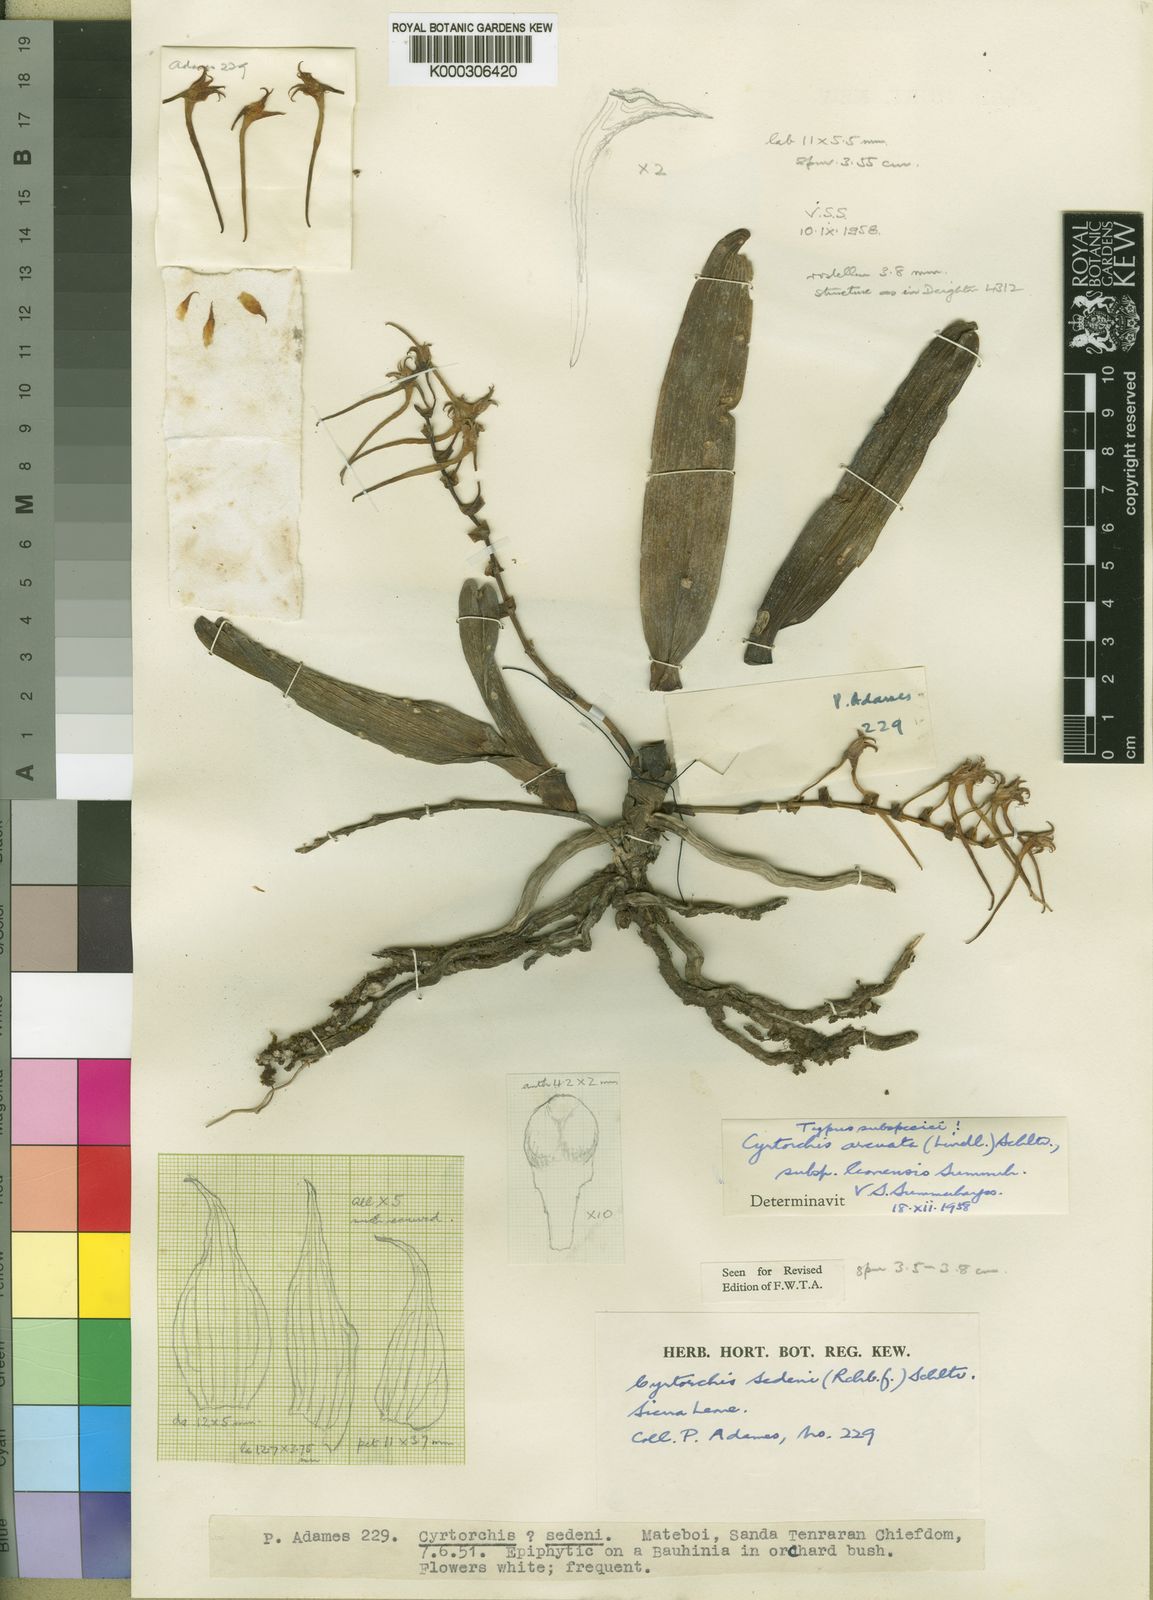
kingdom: Plantae
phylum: Tracheophyta
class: Liliopsida
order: Asparagales
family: Orchidaceae
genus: Cyrtorchis
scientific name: Cyrtorchis arcuata
